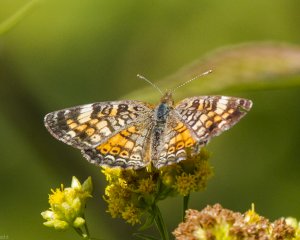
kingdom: Animalia
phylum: Arthropoda
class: Insecta
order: Lepidoptera
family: Nymphalidae
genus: Phyciodes
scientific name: Phyciodes tharos
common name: Northern Crescent
